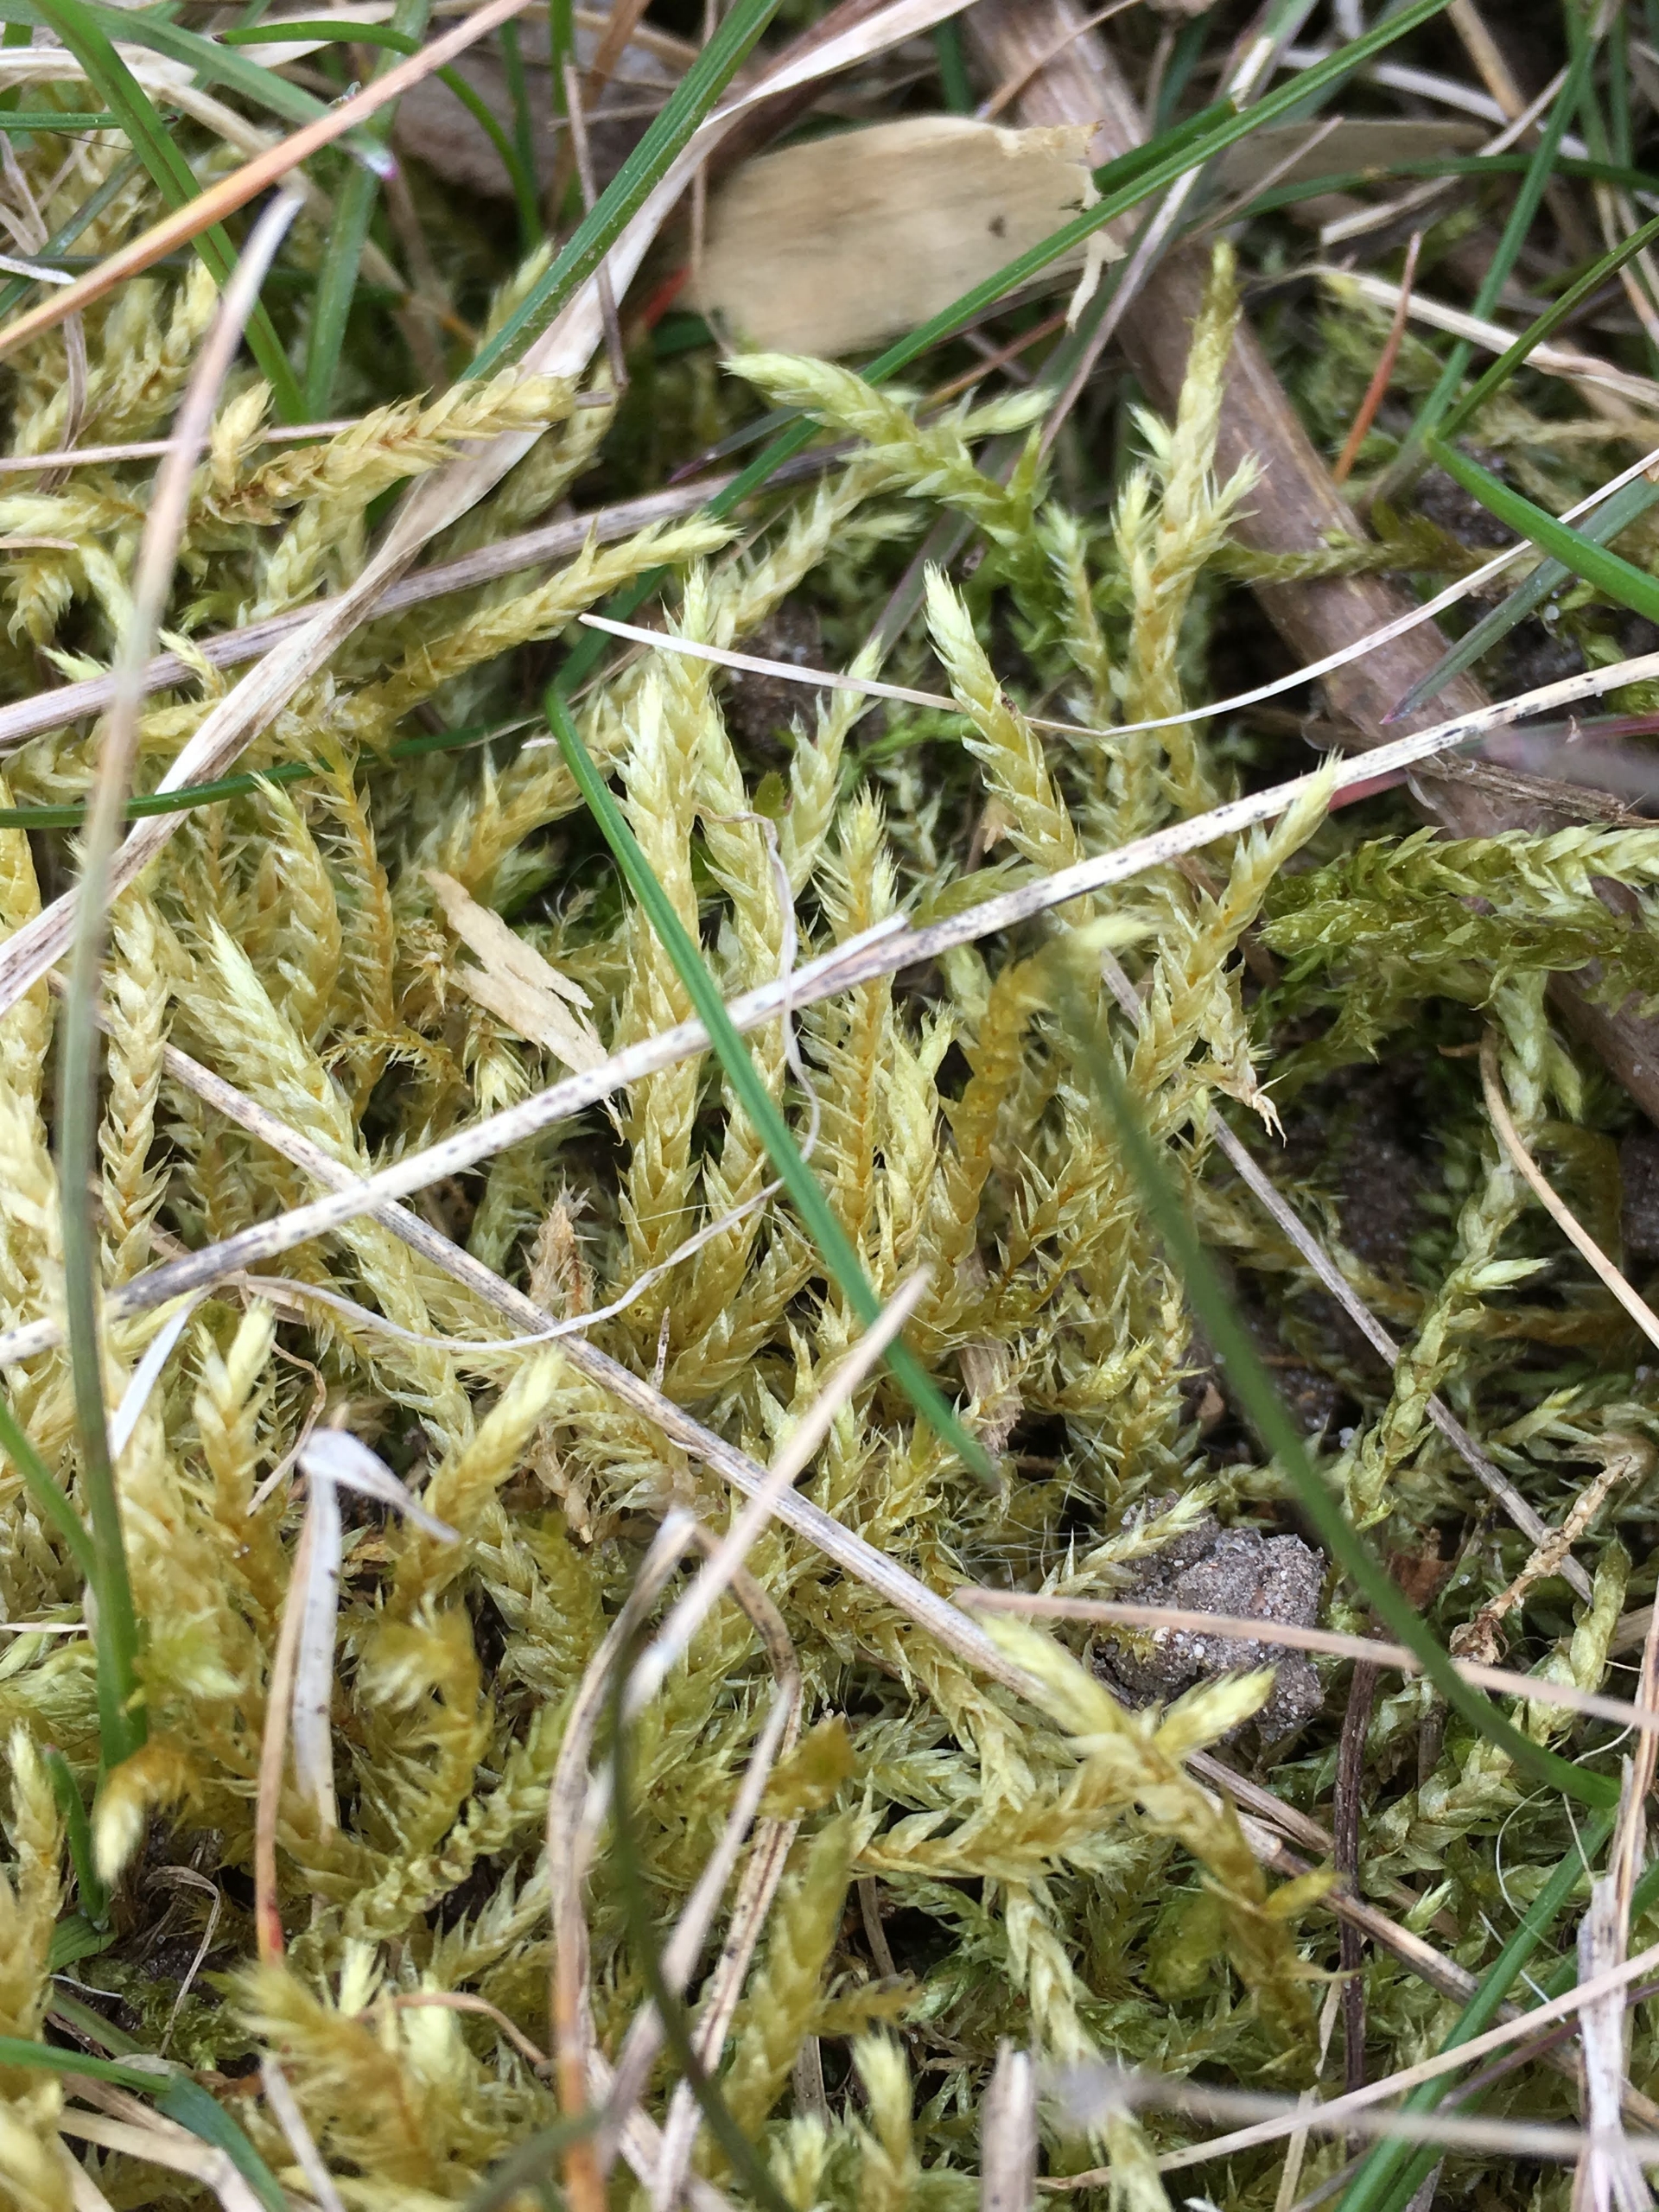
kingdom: Plantae
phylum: Bryophyta
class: Bryopsida
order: Hypnales
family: Brachytheciaceae
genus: Brachythecium
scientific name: Brachythecium rutabulum
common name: Almindelig kortkapsel
